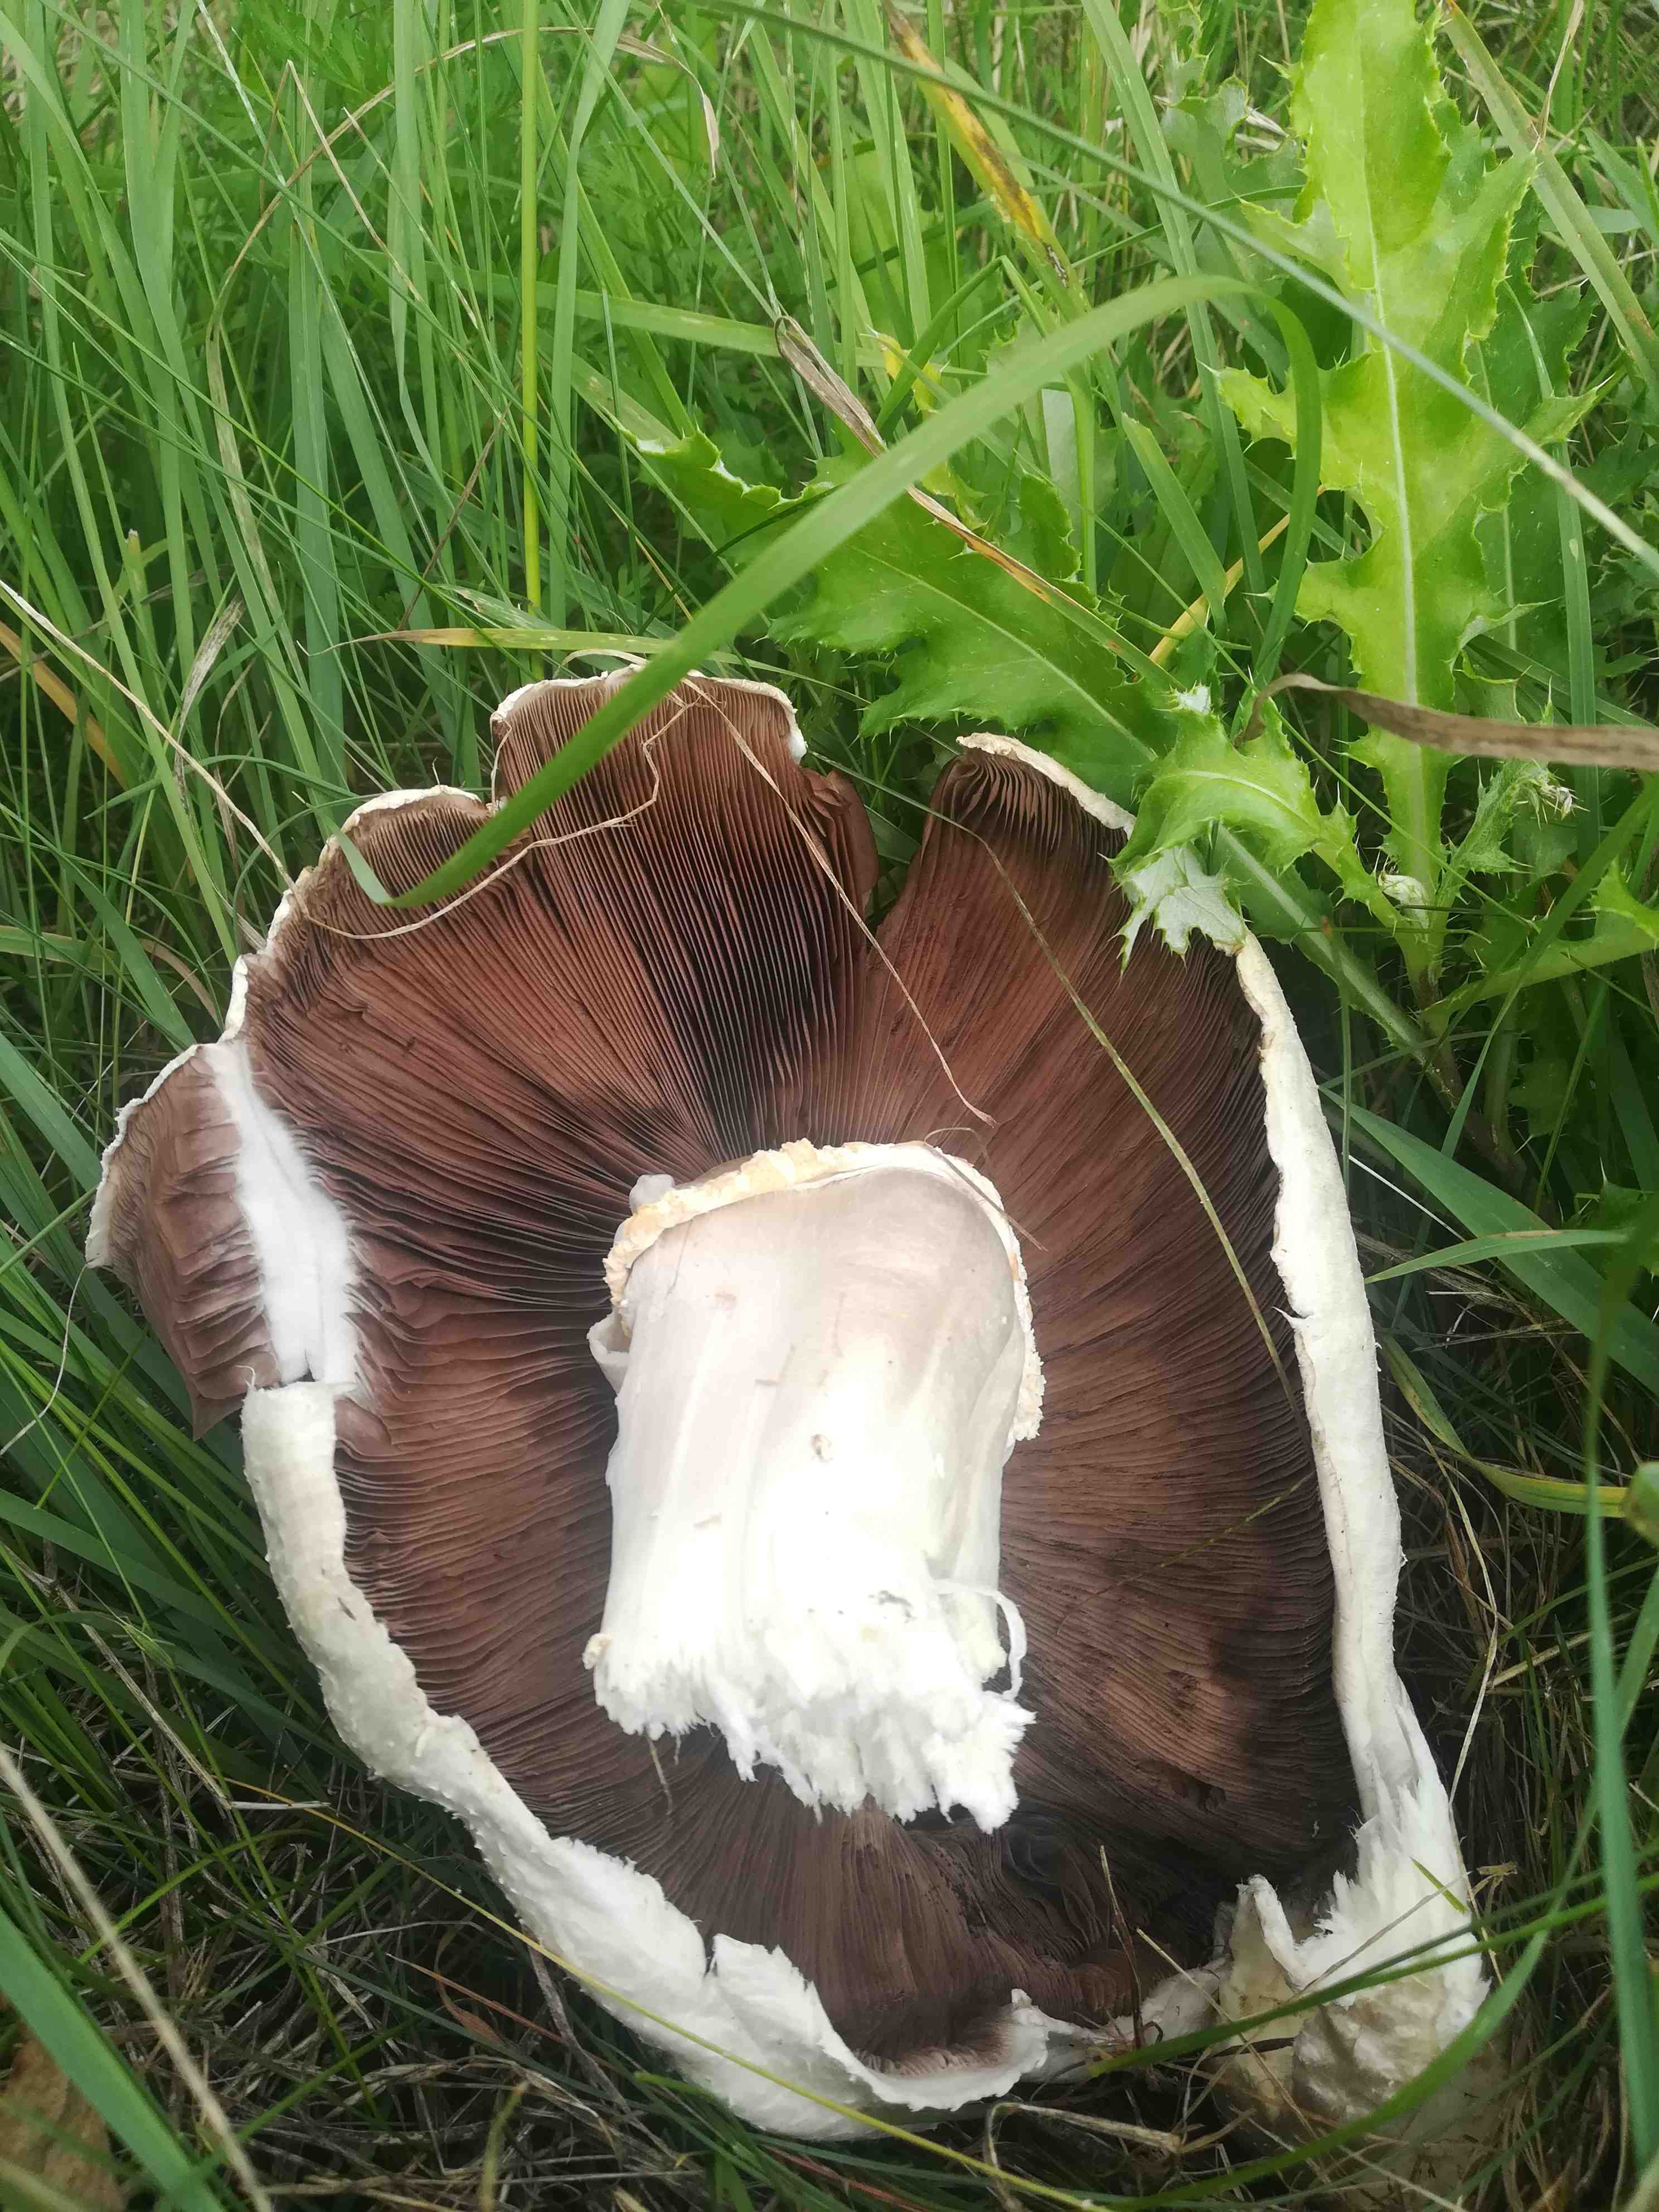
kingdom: Fungi
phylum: Basidiomycota
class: Agaricomycetes
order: Agaricales
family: Agaricaceae
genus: Agaricus
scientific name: Agaricus
